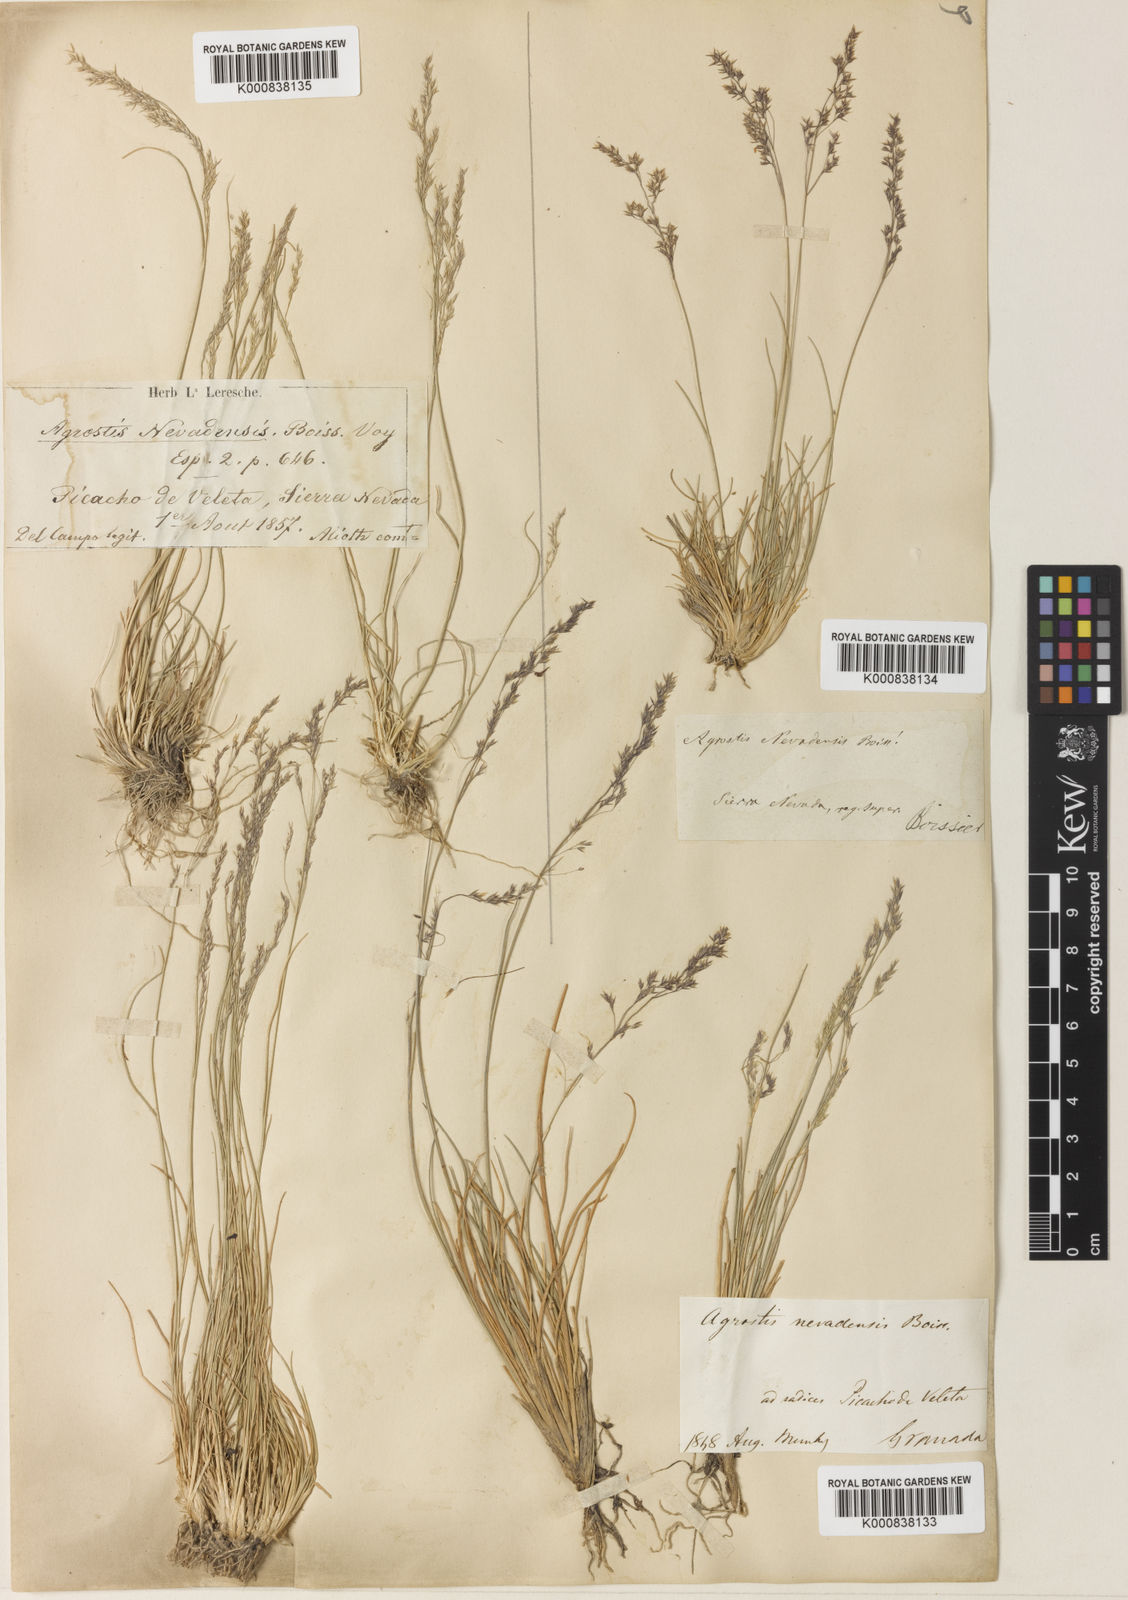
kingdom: Plantae
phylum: Tracheophyta
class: Liliopsida
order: Poales
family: Poaceae
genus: Agrostis
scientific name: Agrostis nevadensis
